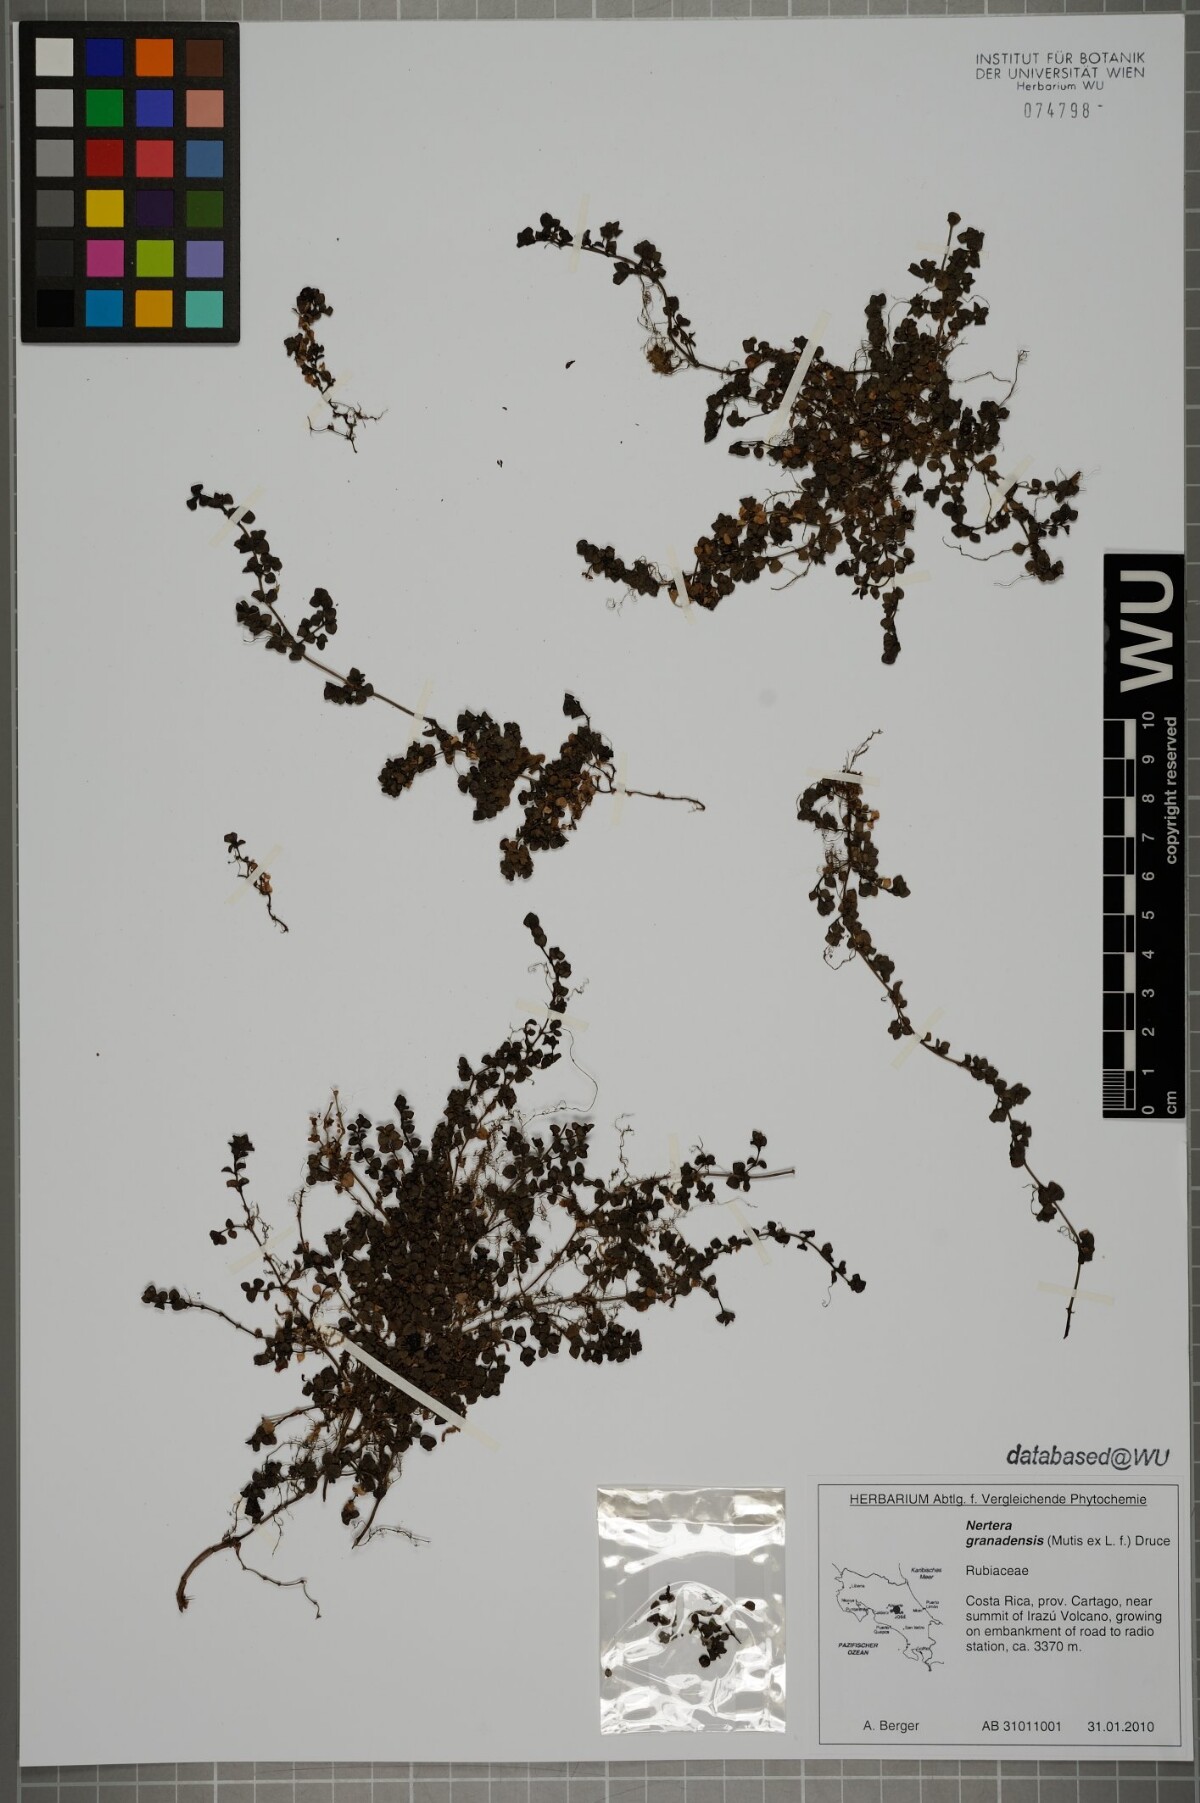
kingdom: Plantae
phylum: Tracheophyta
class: Magnoliopsida
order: Gentianales
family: Rubiaceae
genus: Nertera
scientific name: Nertera granadensis
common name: Beadplant
